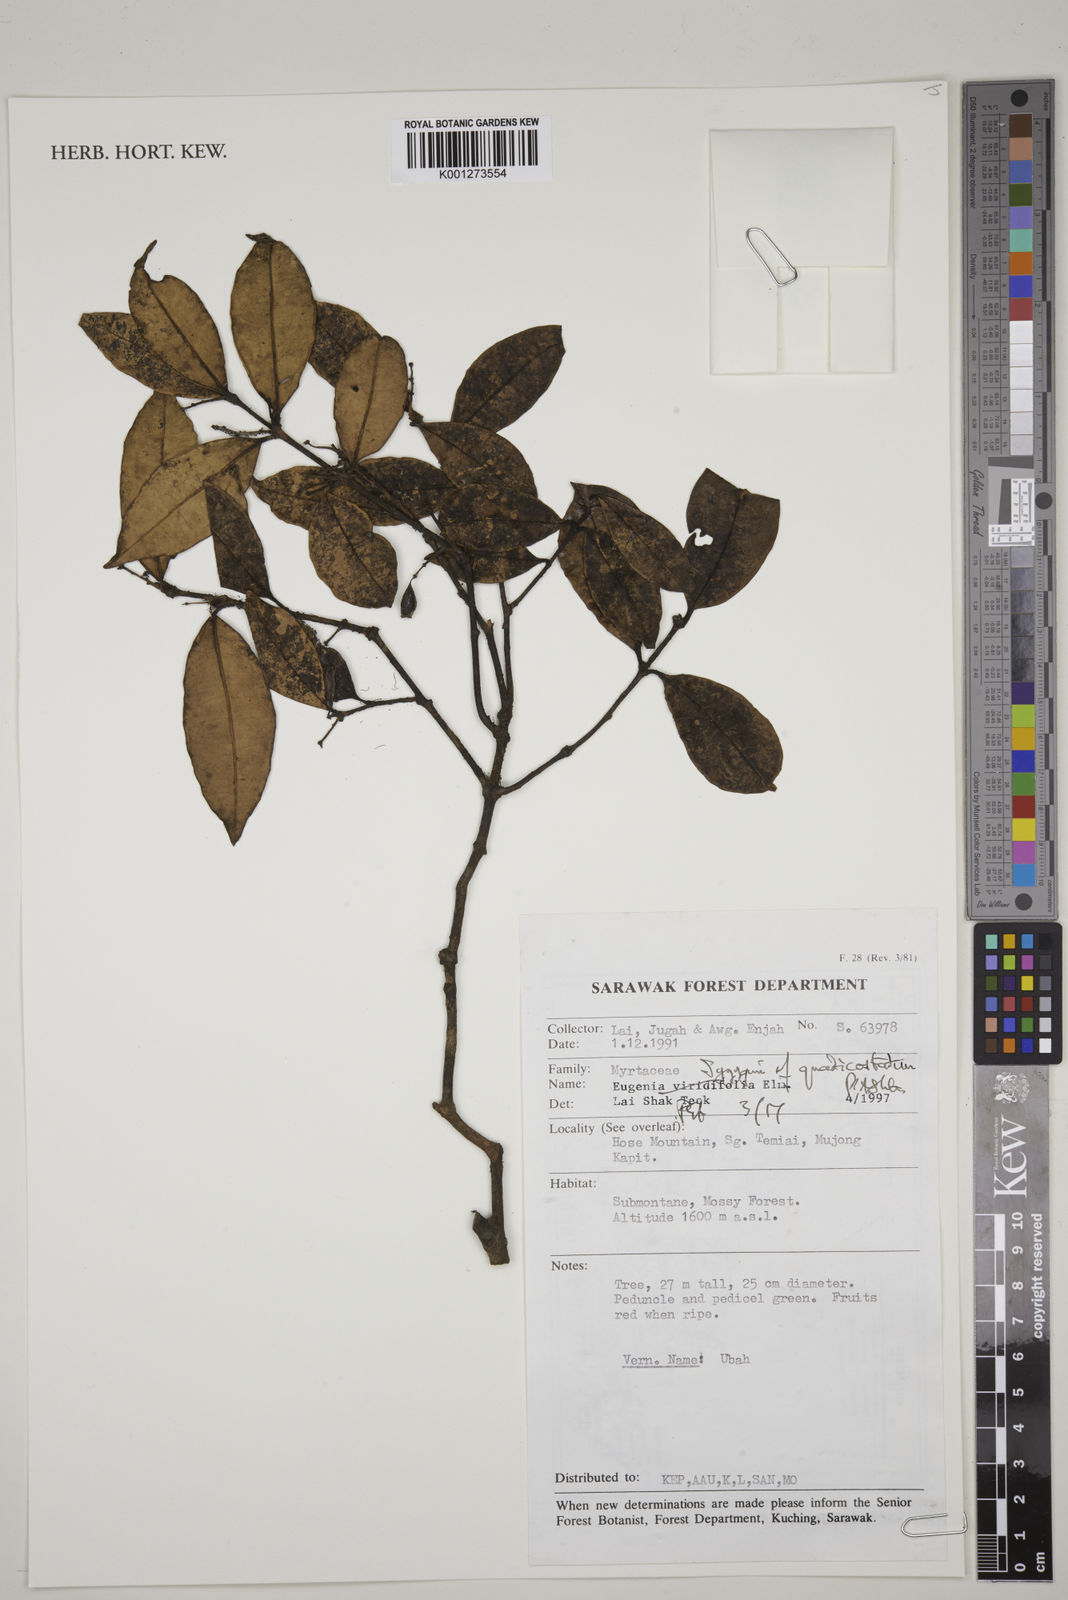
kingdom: Plantae
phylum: Tracheophyta
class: Magnoliopsida
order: Myrtales
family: Myrtaceae
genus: Syzygium
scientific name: Syzygium quadricostatum
